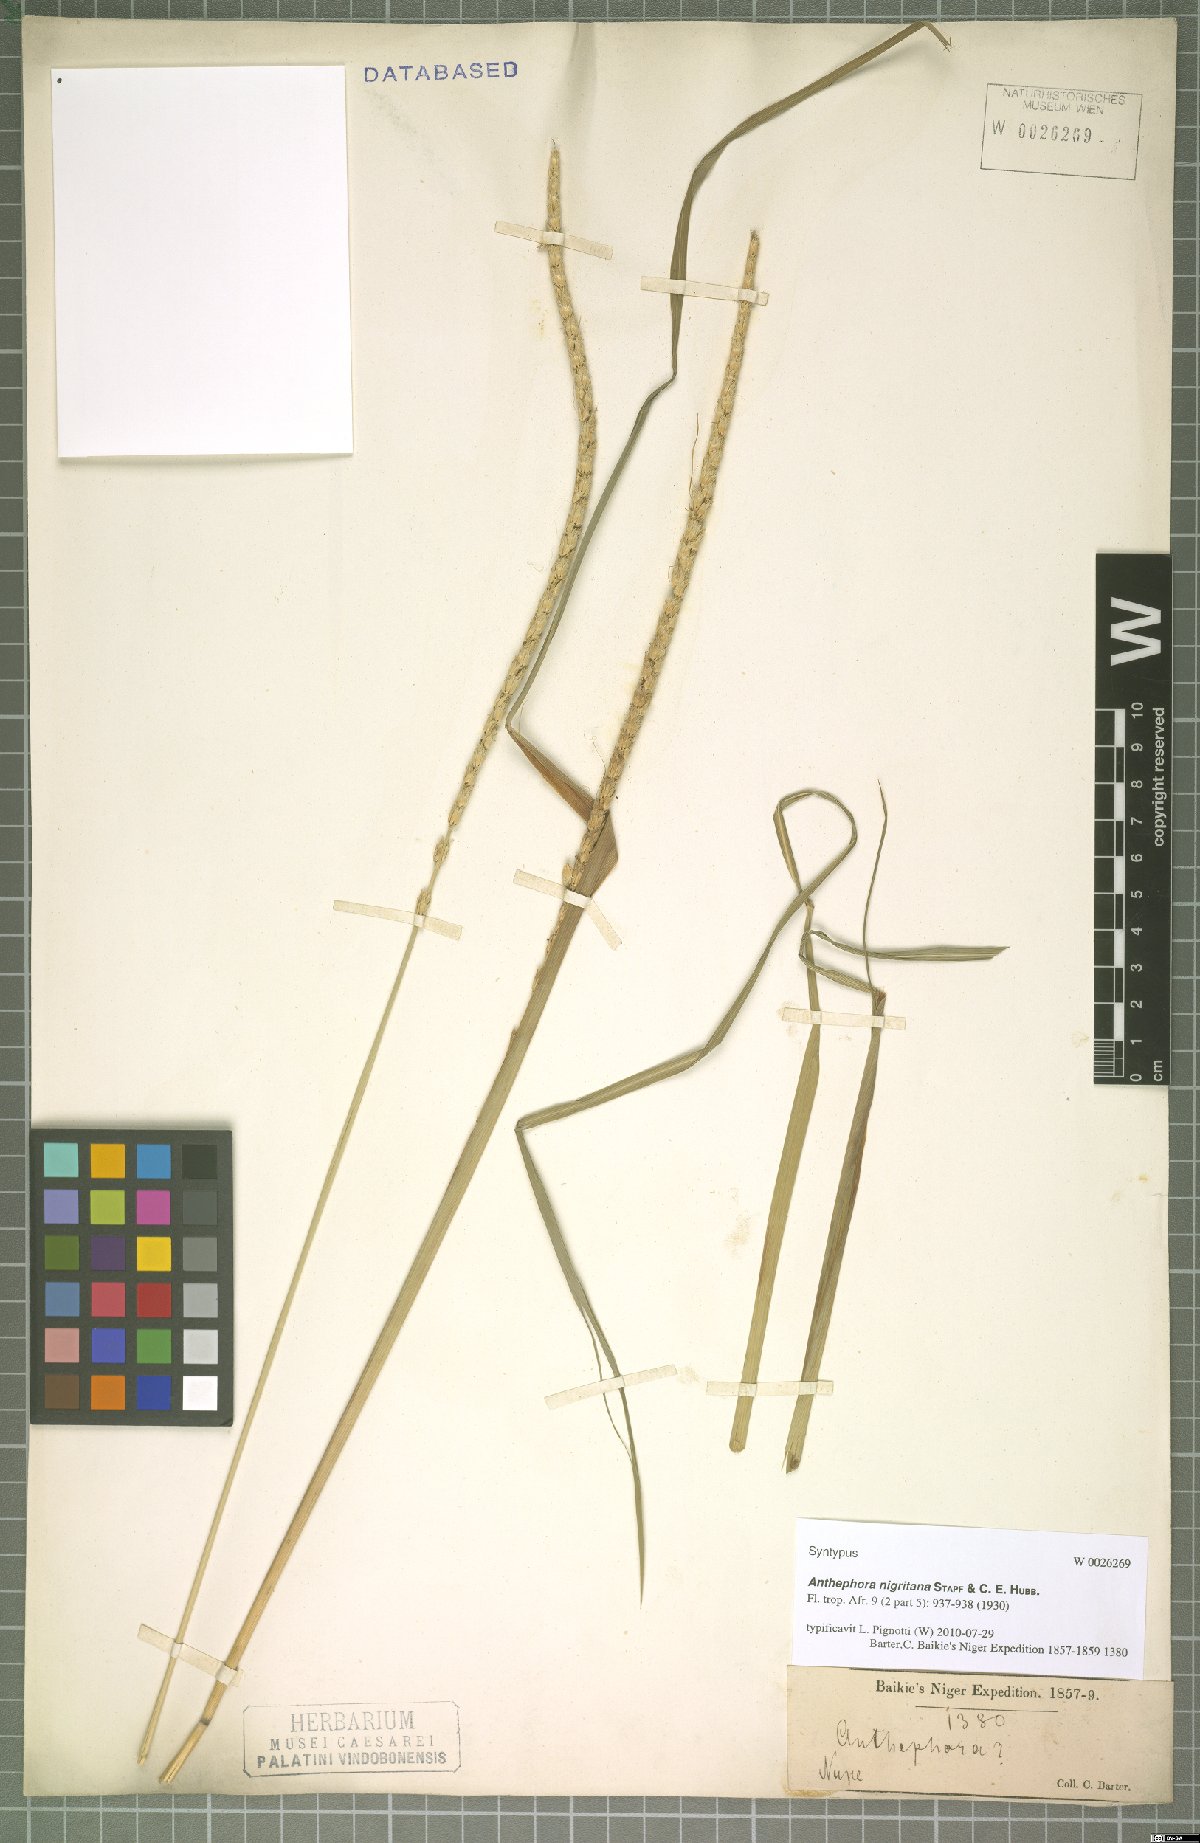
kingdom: Plantae
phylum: Tracheophyta
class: Liliopsida
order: Poales
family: Poaceae
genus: Anthephora
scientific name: Anthephora nigritana
